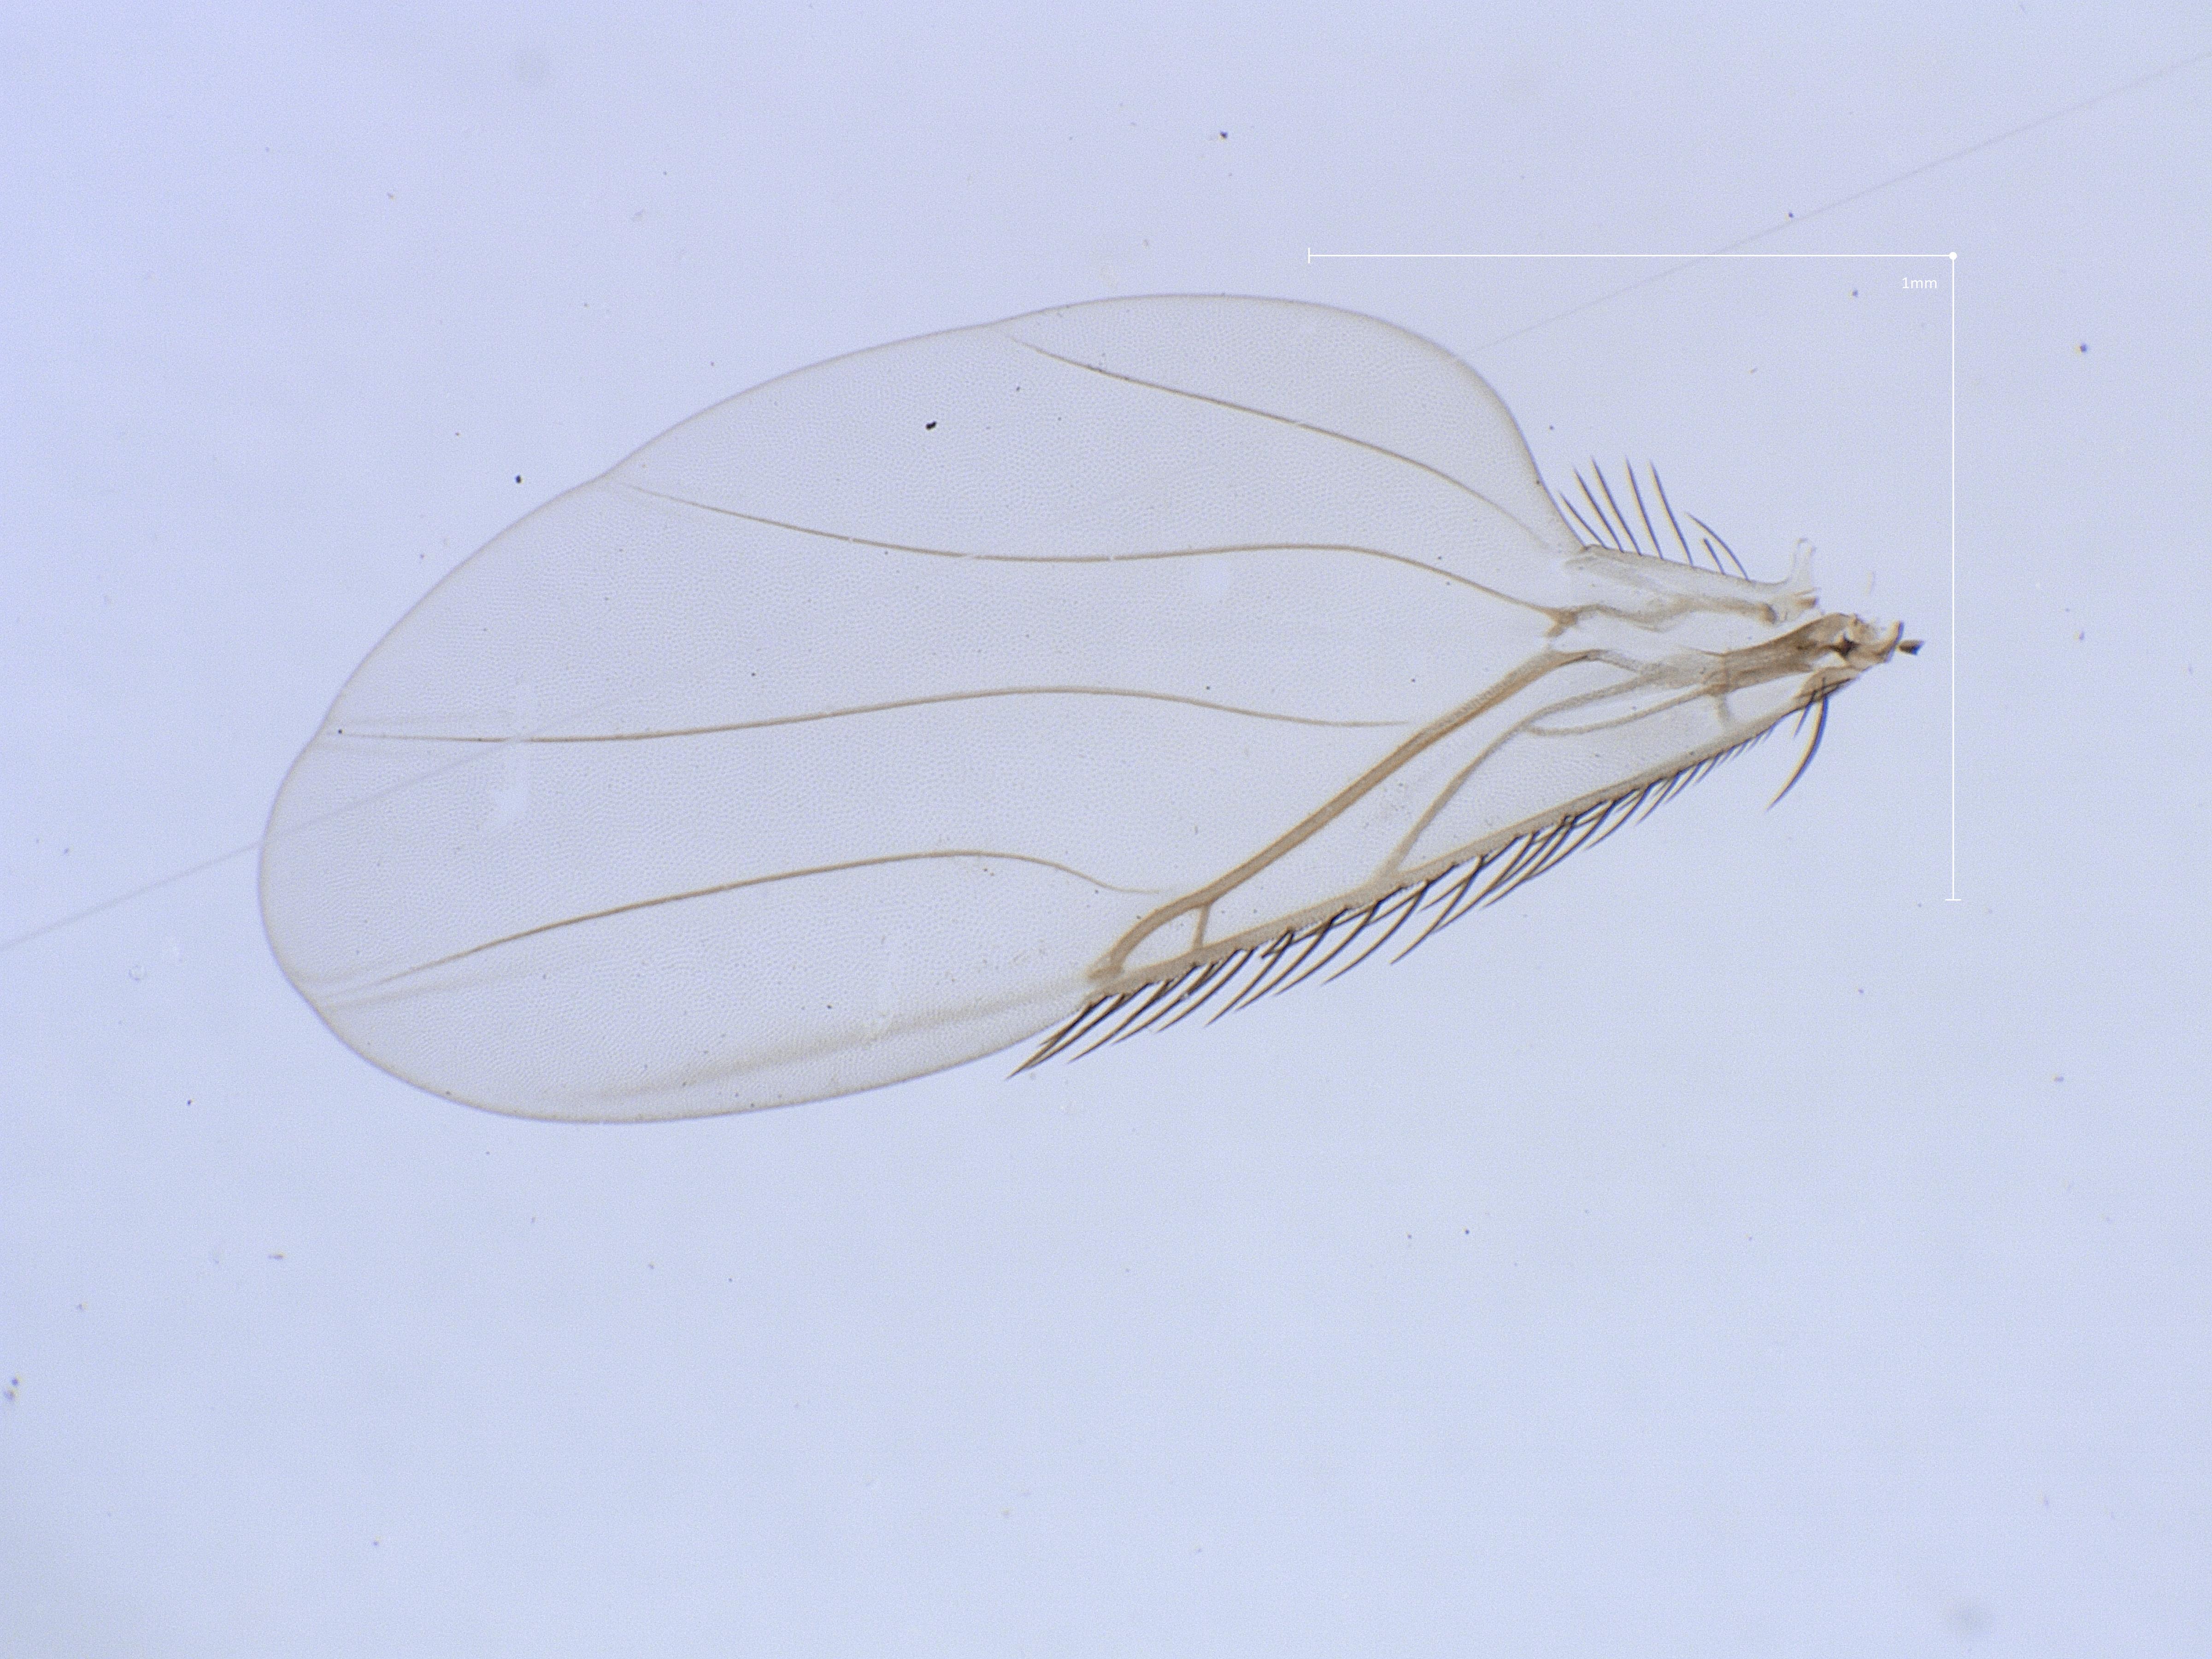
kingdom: Animalia
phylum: Arthropoda
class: Insecta
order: Diptera
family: Phoridae
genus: Megaselia
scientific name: Megaselia tenebricola
